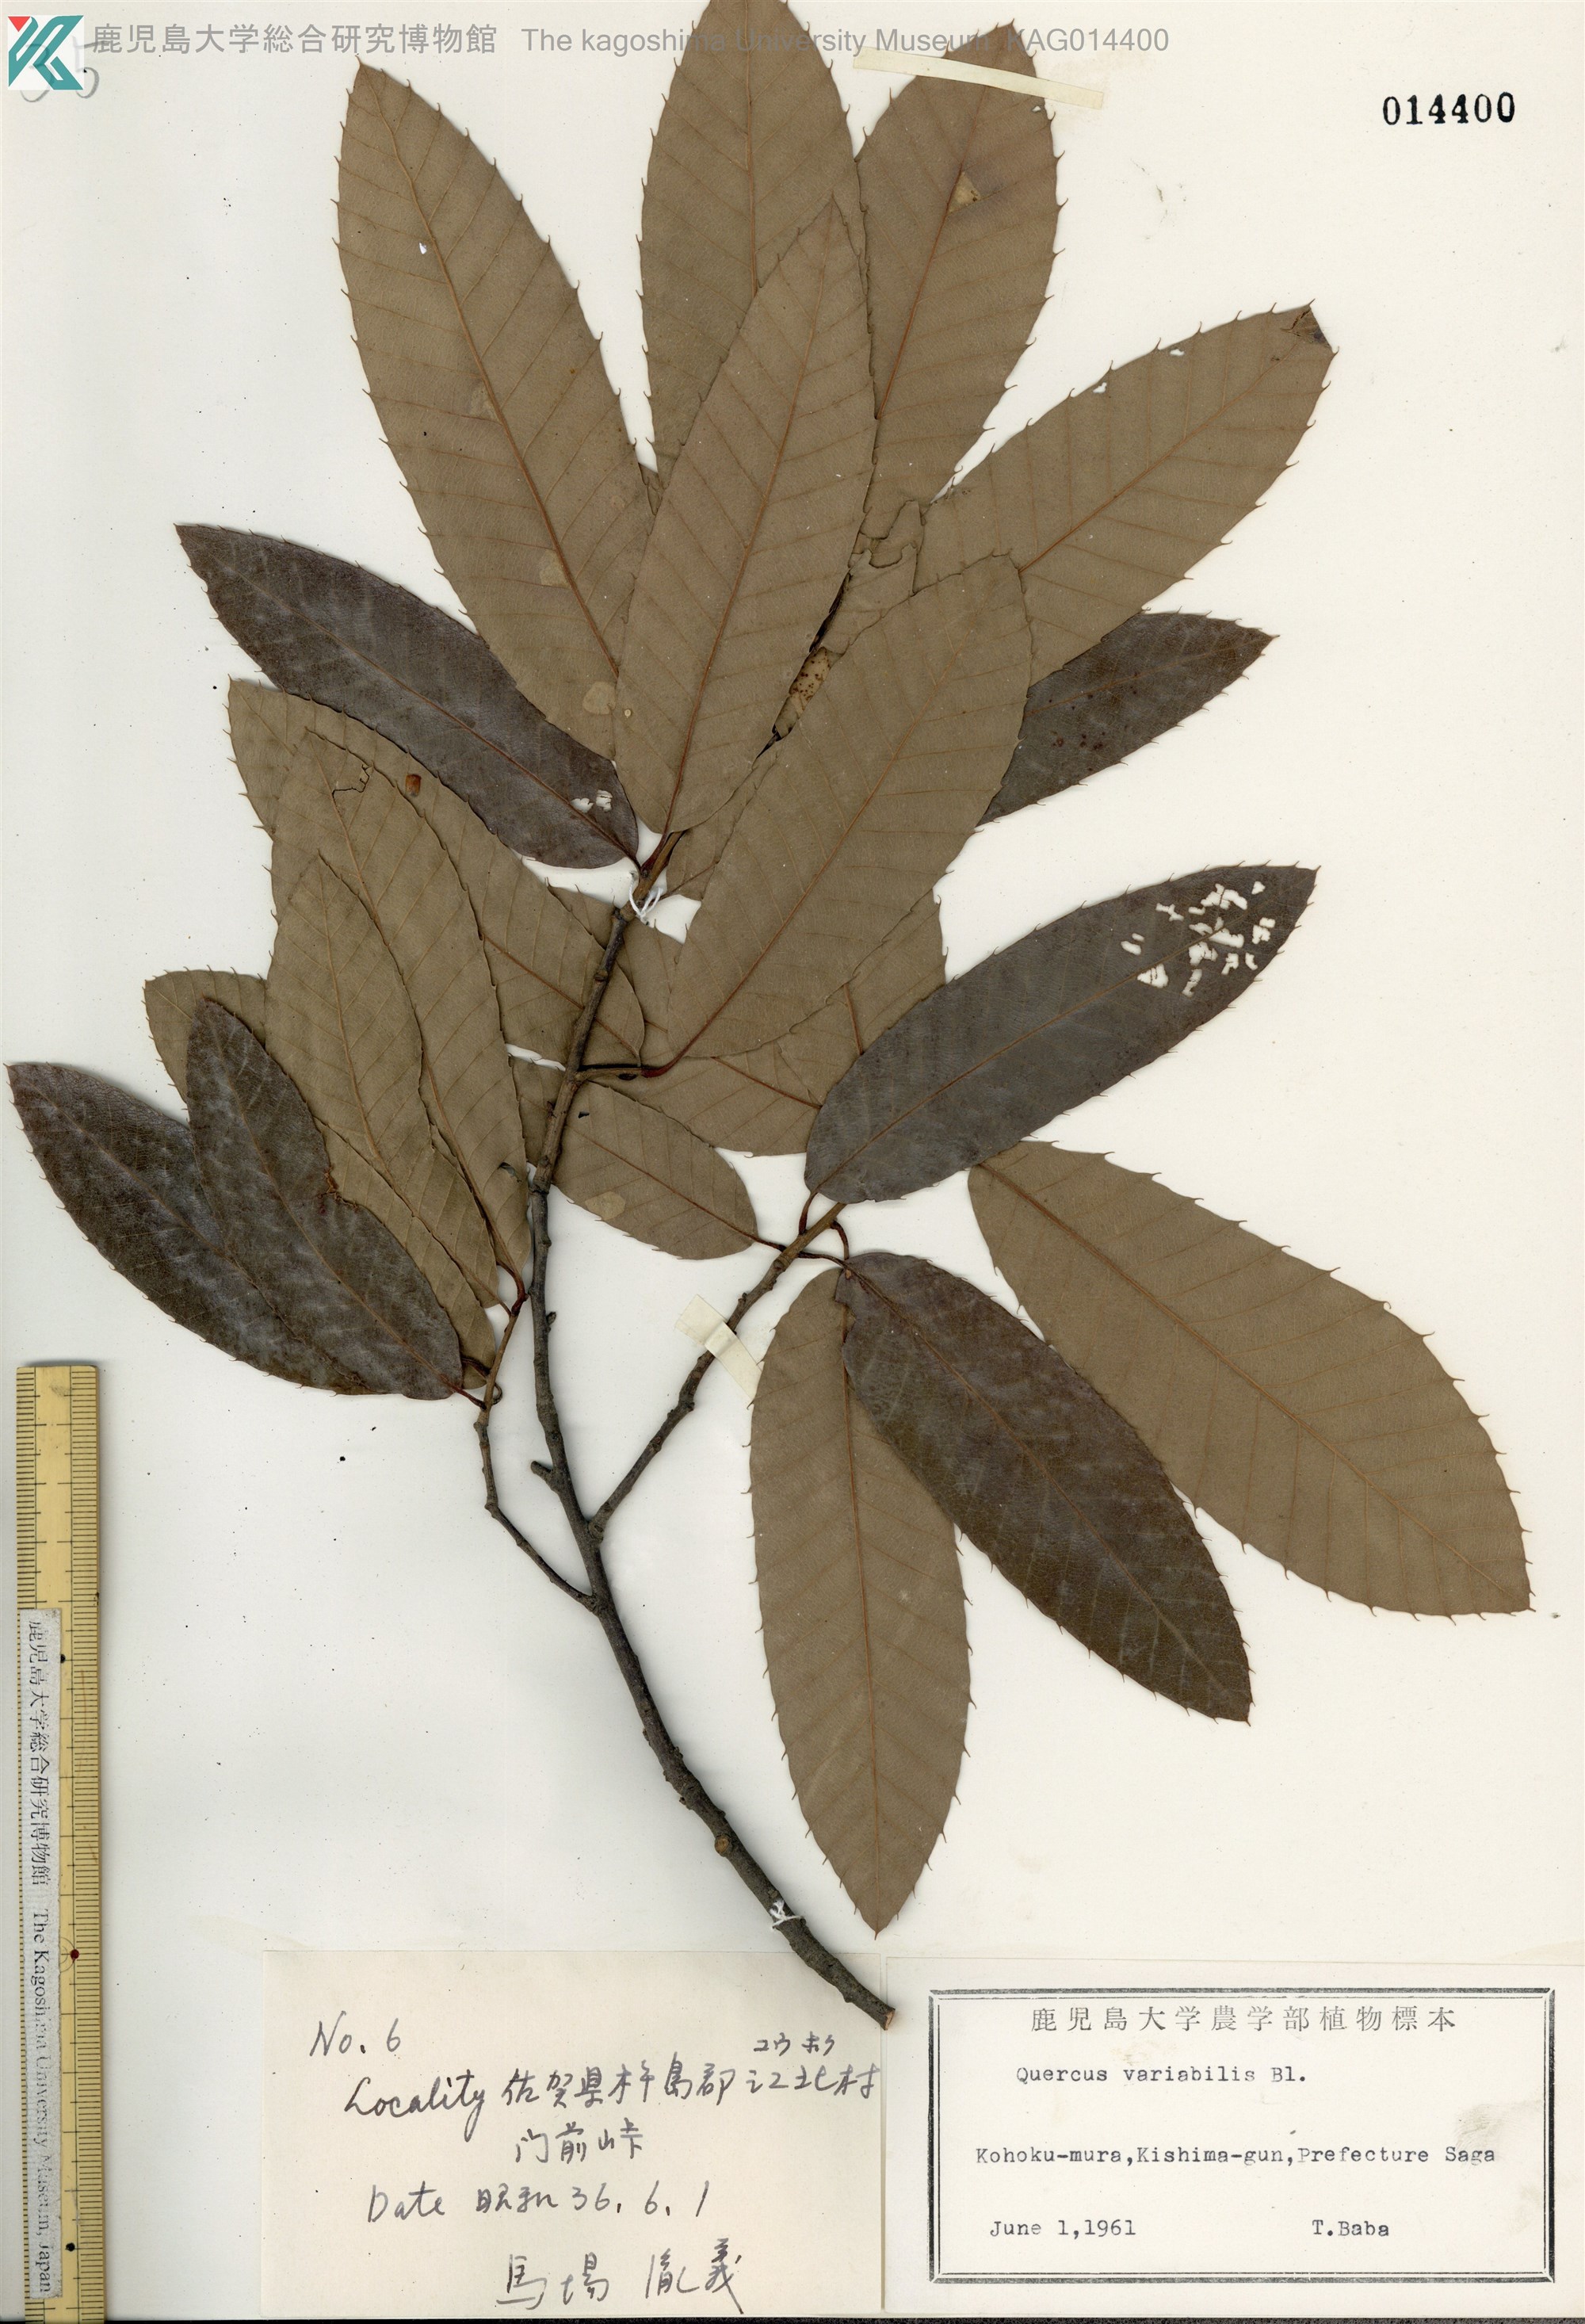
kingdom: Plantae
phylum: Tracheophyta
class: Magnoliopsida
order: Fagales
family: Fagaceae
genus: Quercus
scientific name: Quercus variabilis
